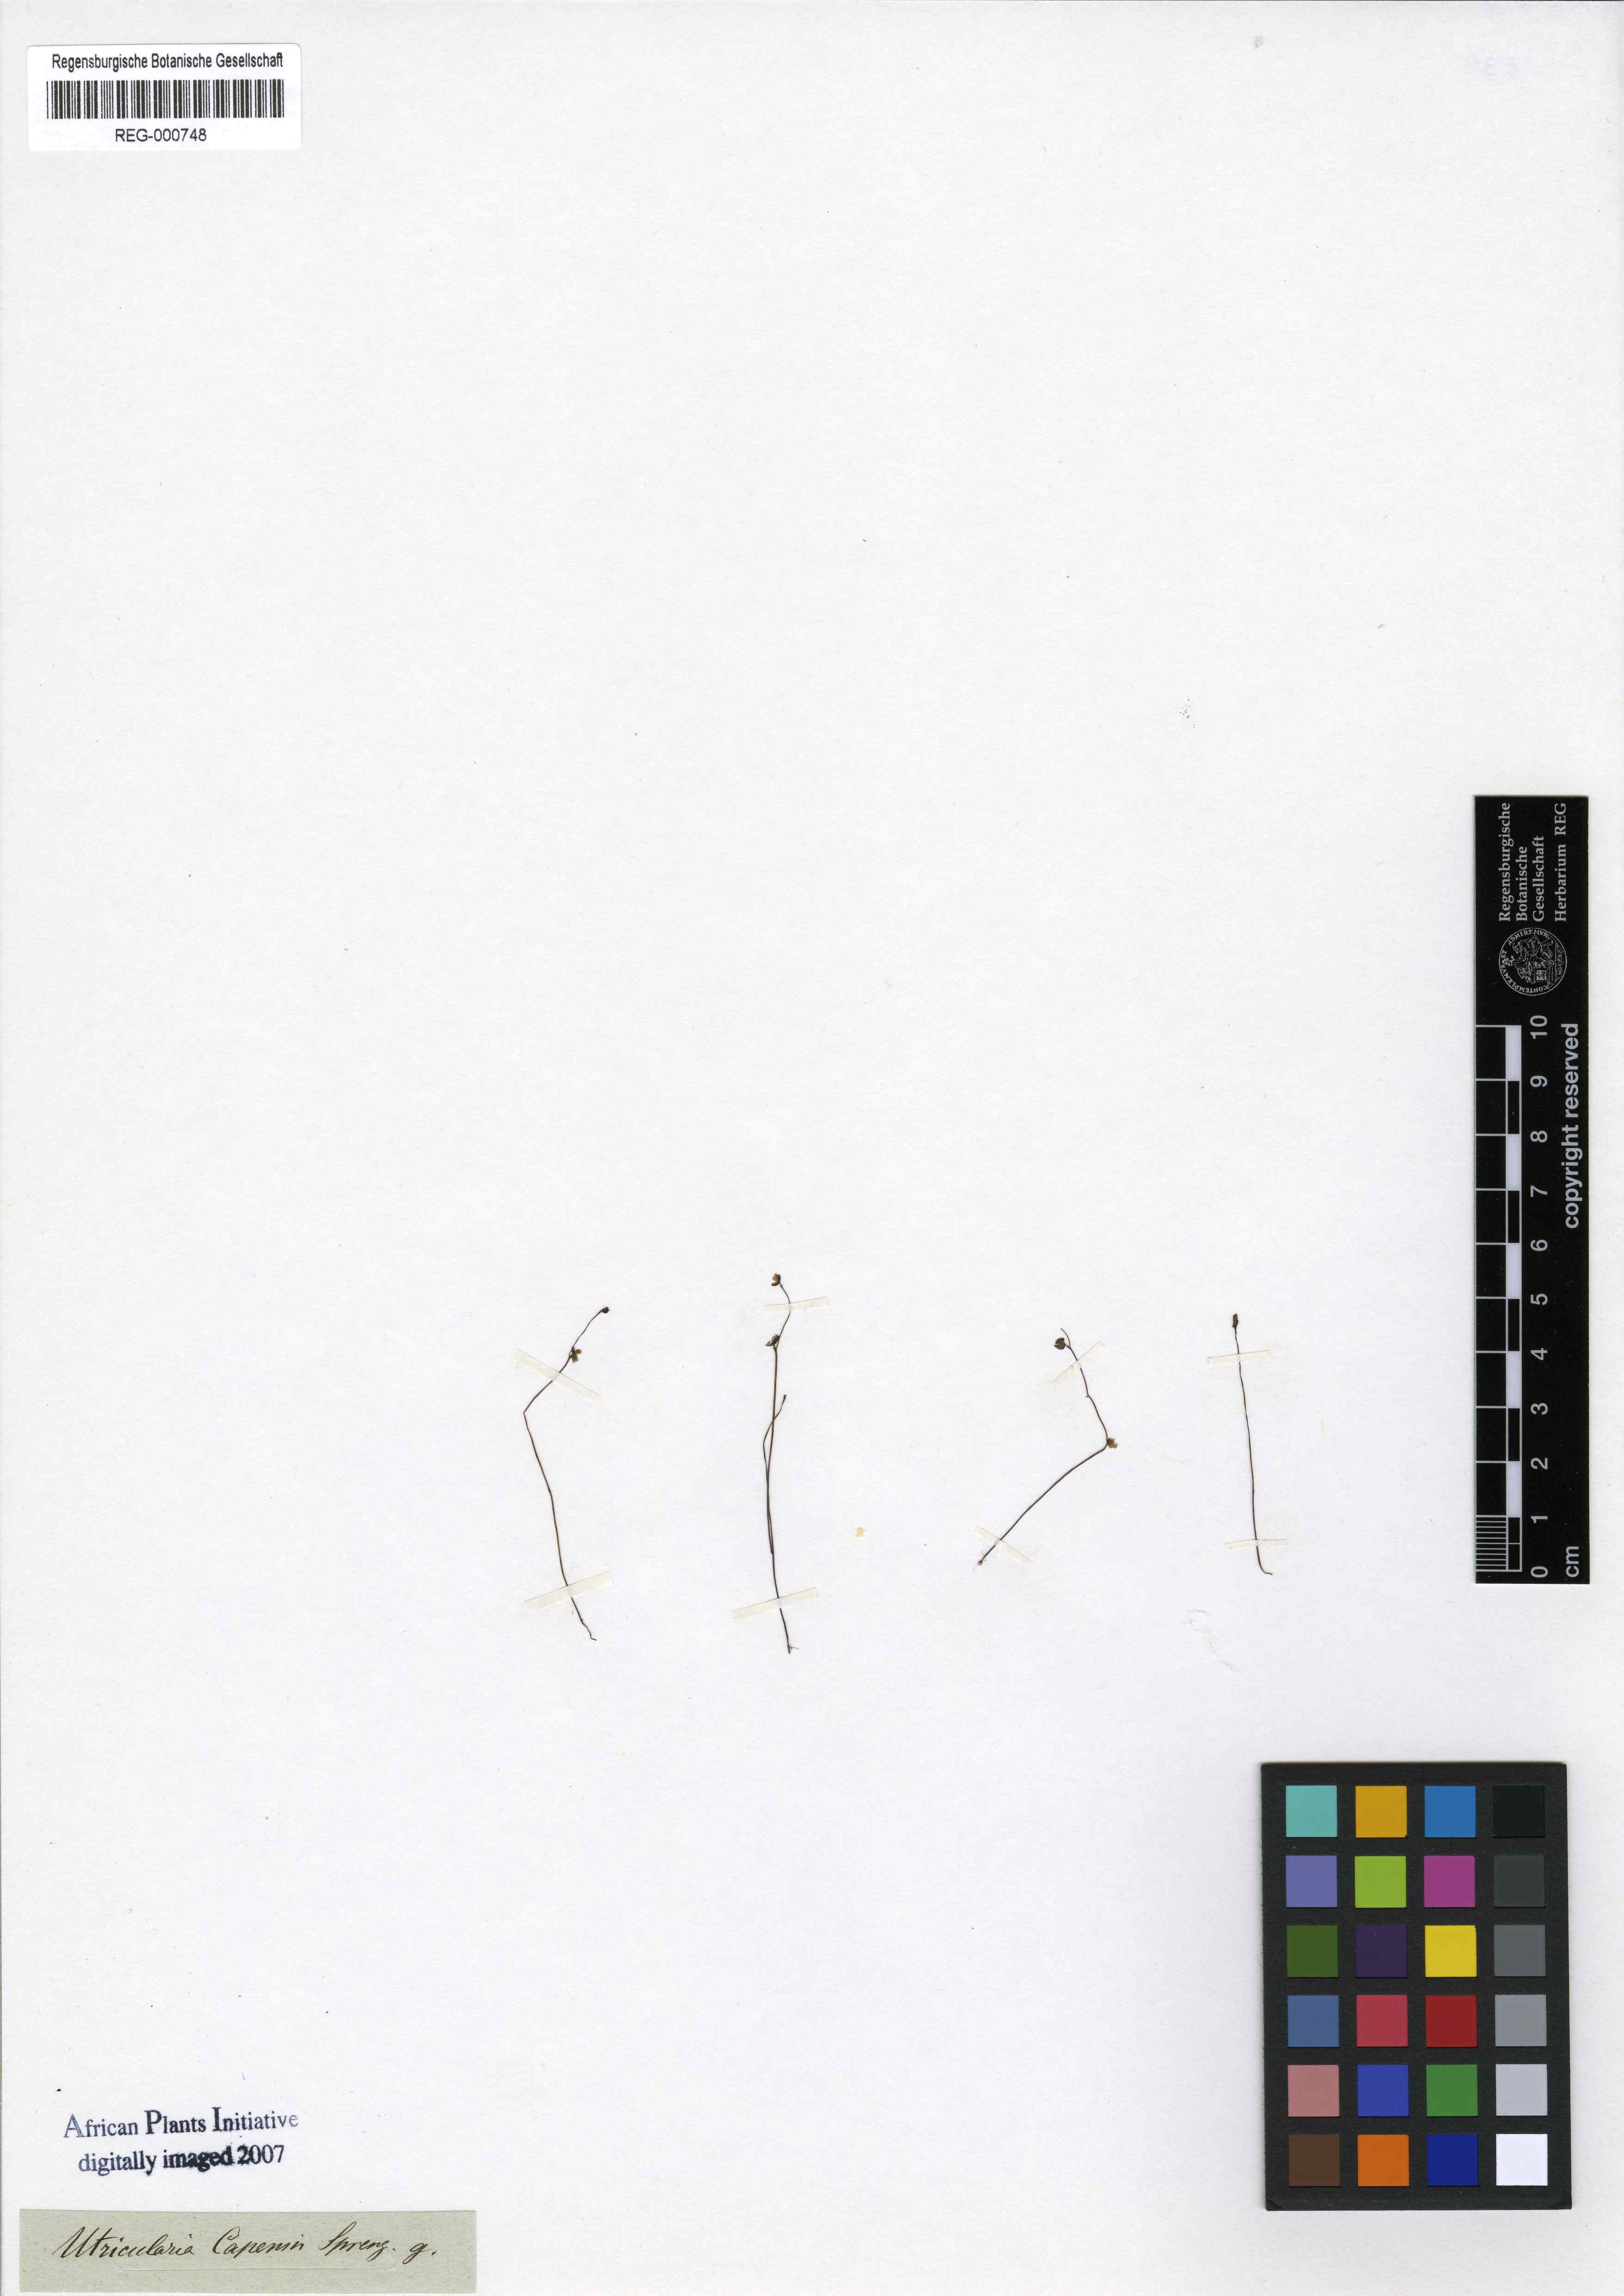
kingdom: Plantae
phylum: Tracheophyta
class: Magnoliopsida
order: Lamiales
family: Lentibulariaceae
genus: Utricularia
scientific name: Utricularia bisquamata
